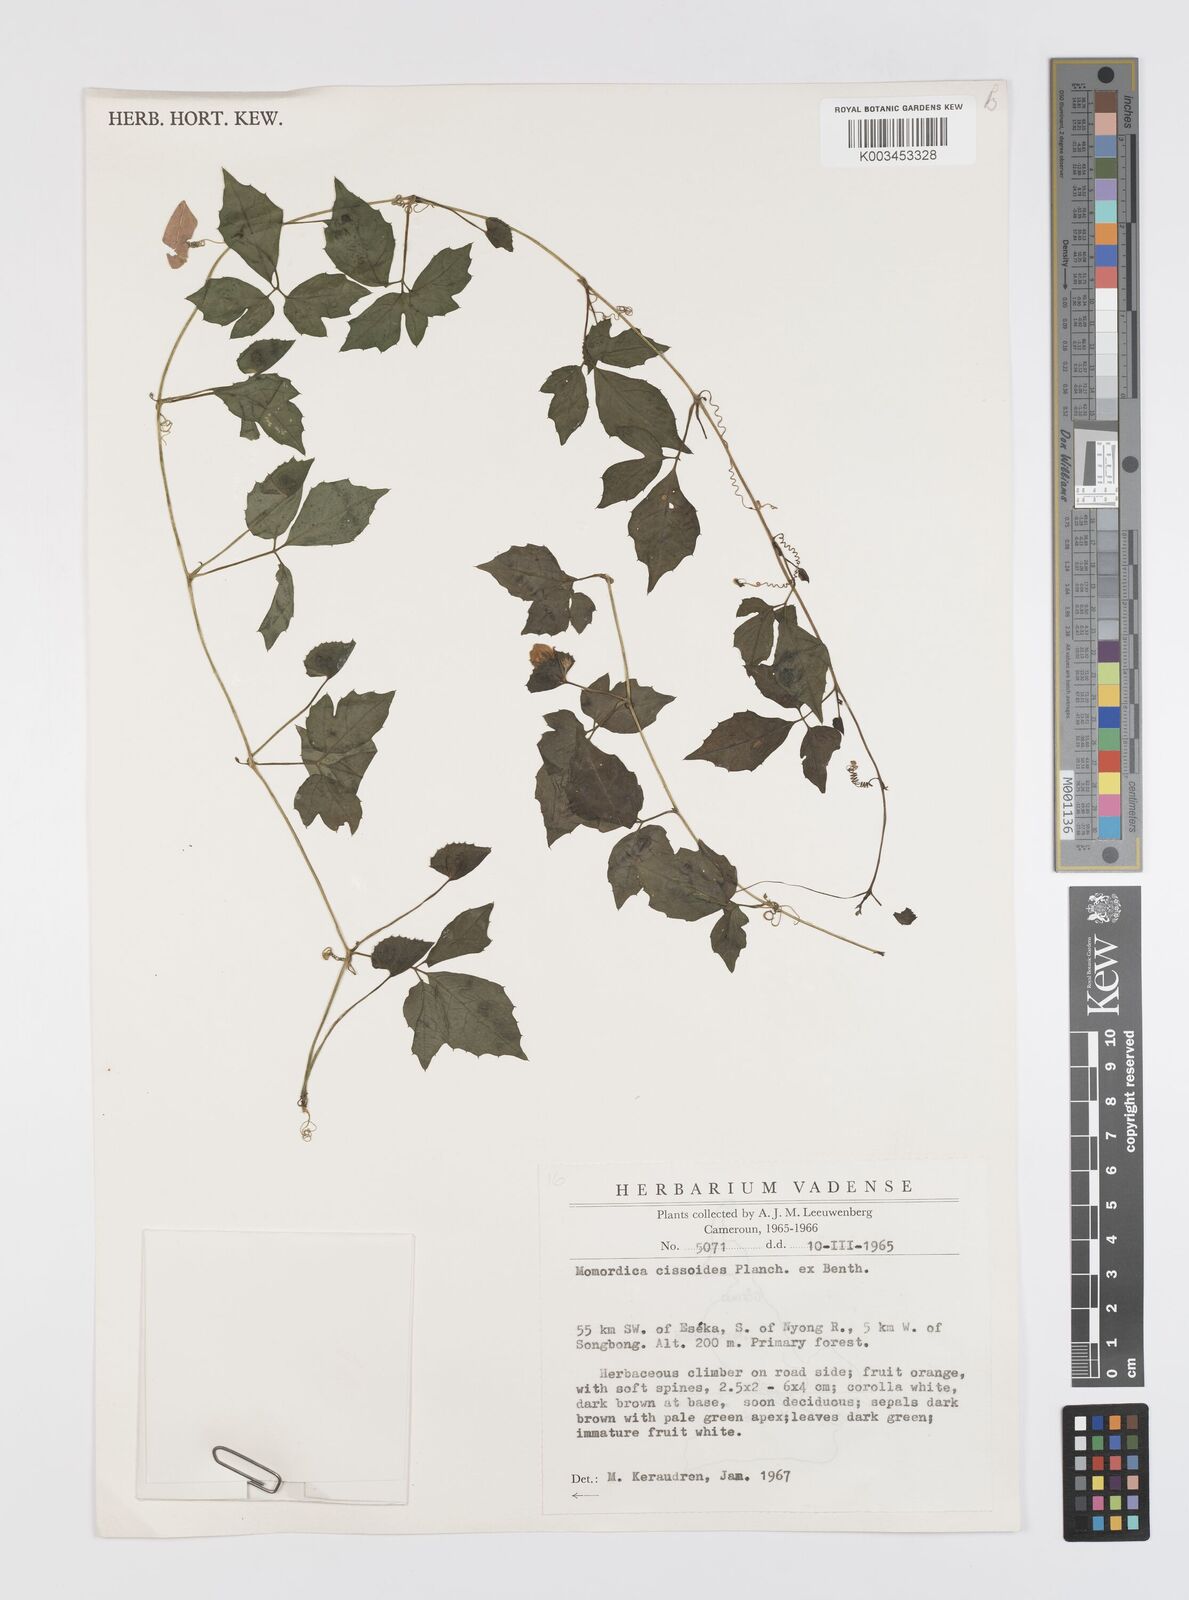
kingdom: Plantae
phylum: Tracheophyta
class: Magnoliopsida
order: Cucurbitales
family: Cucurbitaceae
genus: Momordica
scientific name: Momordica cissoides
